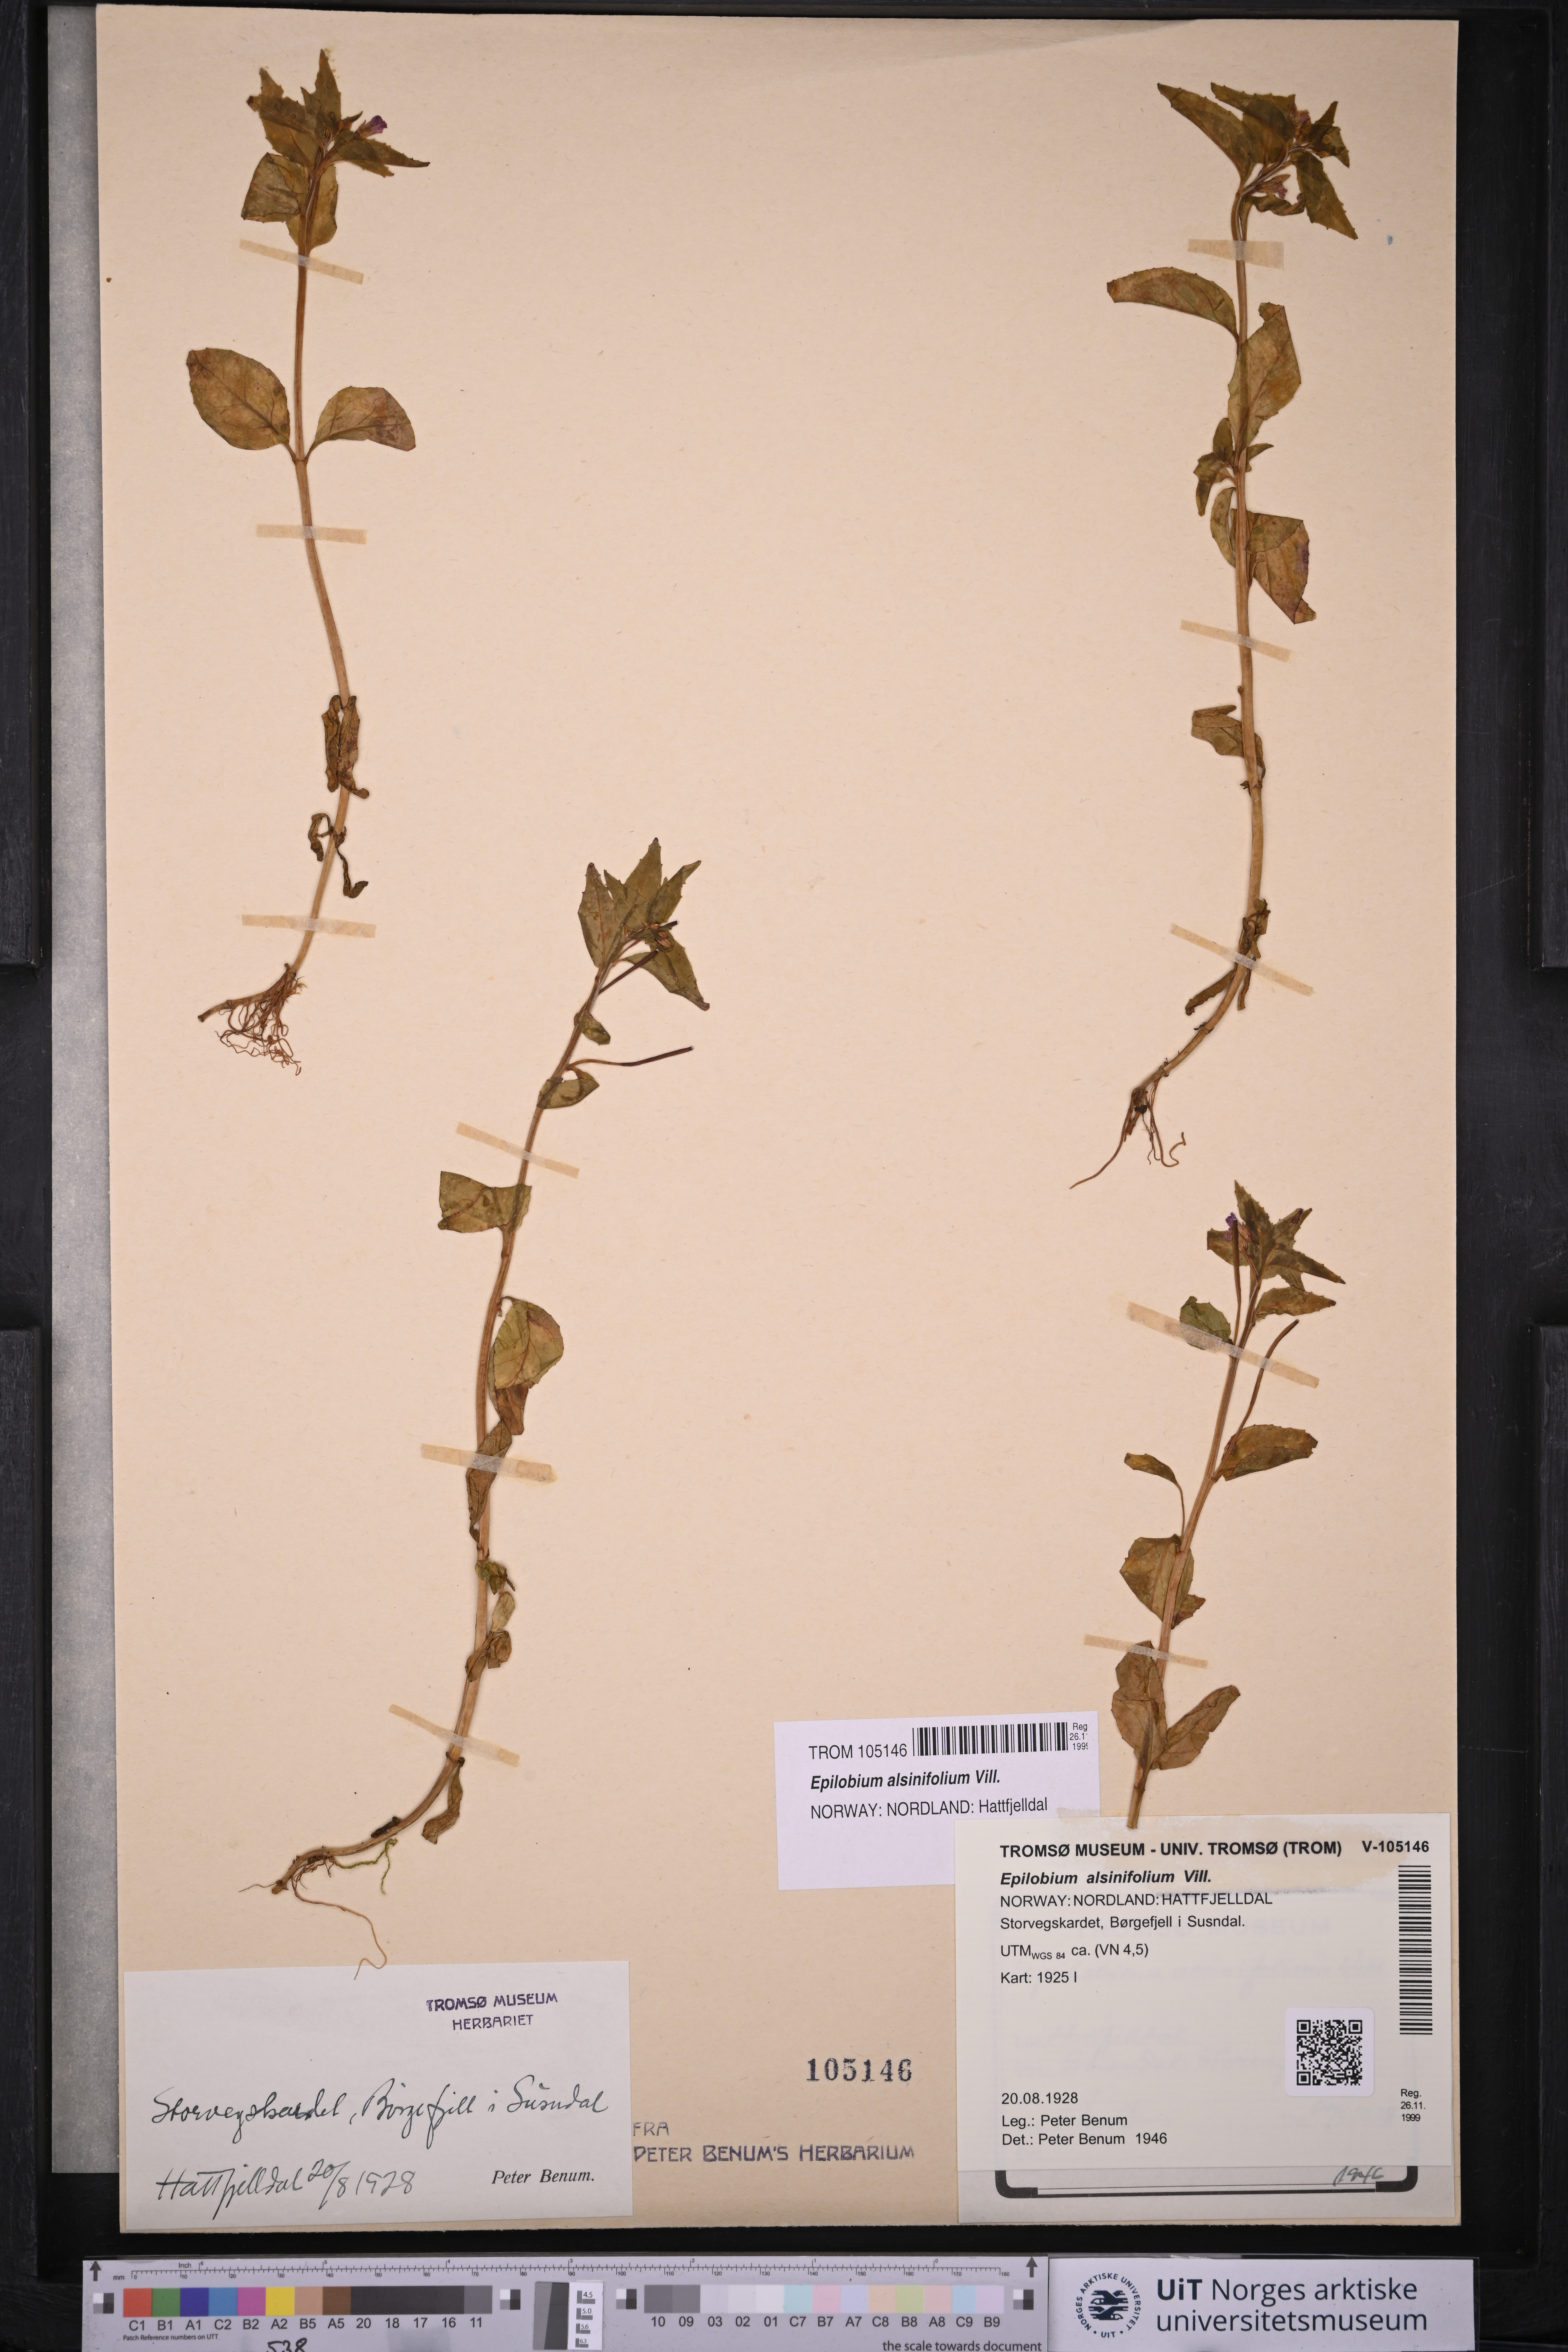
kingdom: Plantae
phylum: Tracheophyta
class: Magnoliopsida
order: Myrtales
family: Onagraceae
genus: Epilobium
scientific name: Epilobium alsinifolium
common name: Chickweed willowherb
